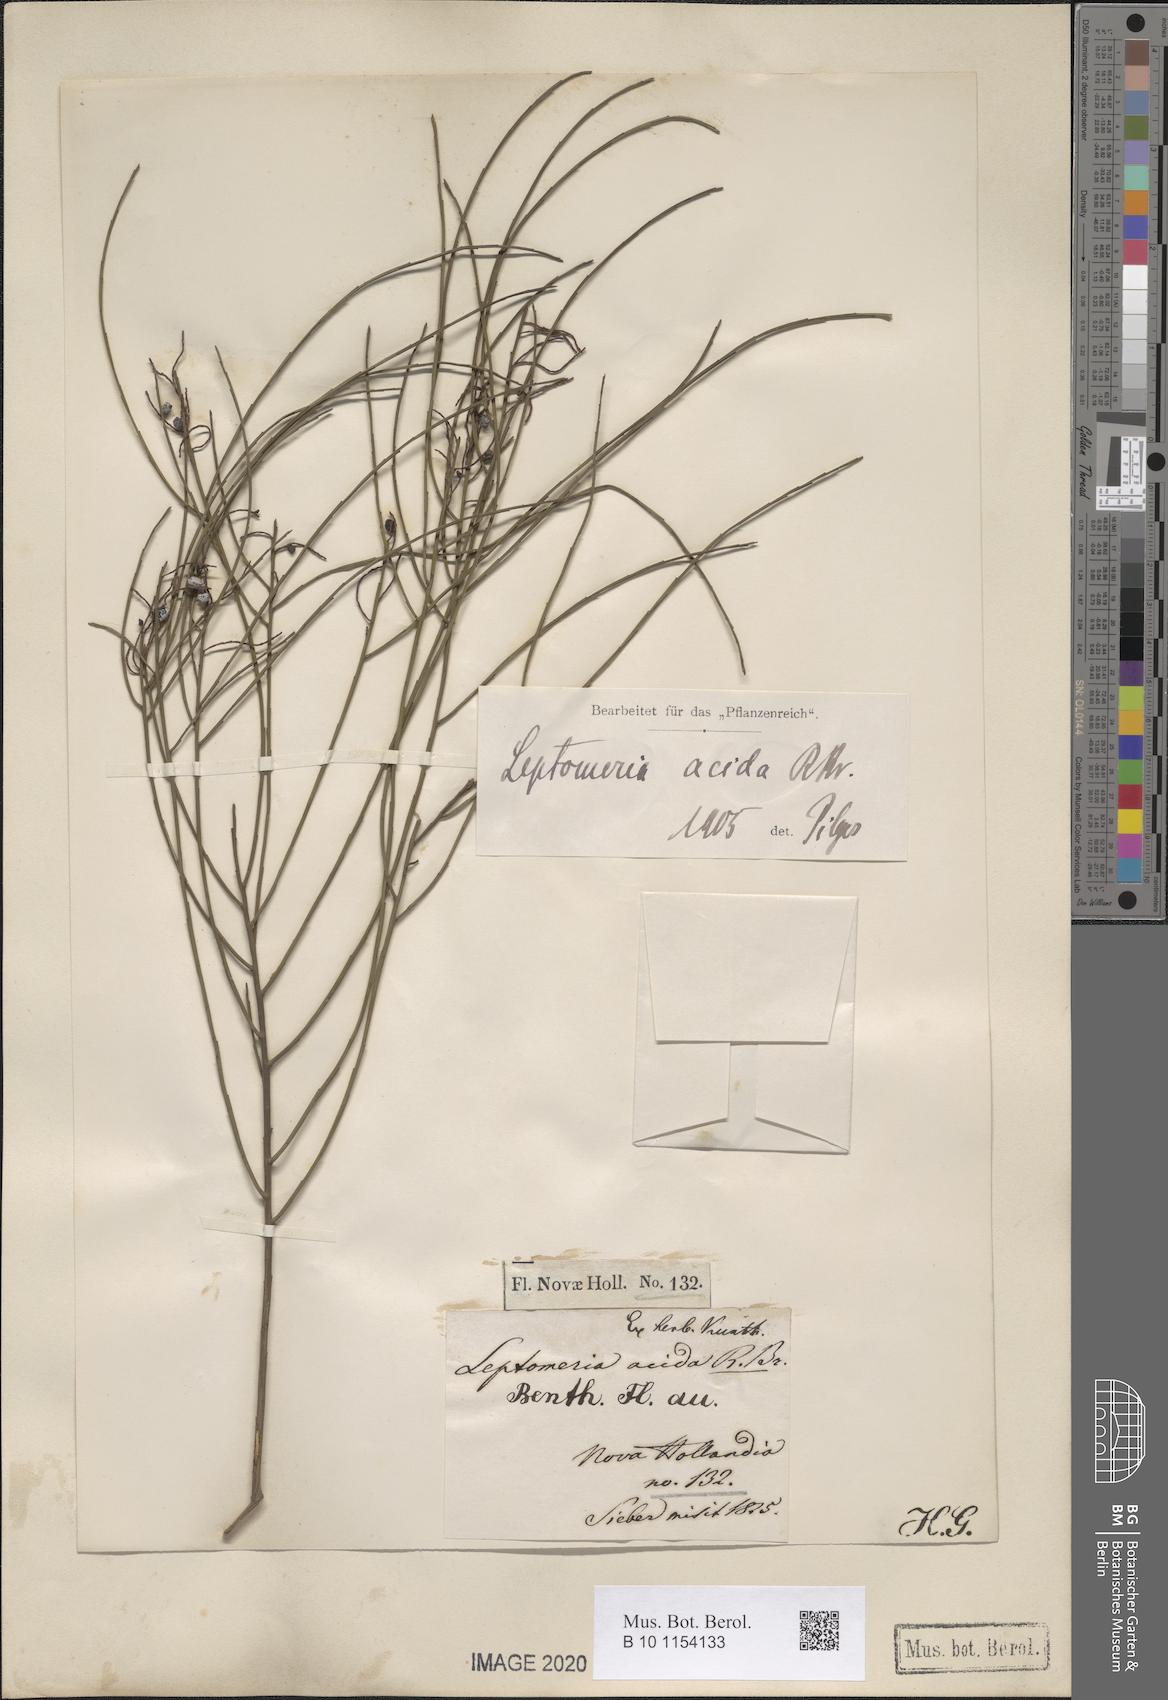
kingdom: Plantae
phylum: Tracheophyta
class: Magnoliopsida
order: Santalales
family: Amphorogynaceae
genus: Leptomeria
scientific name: Leptomeria acida
